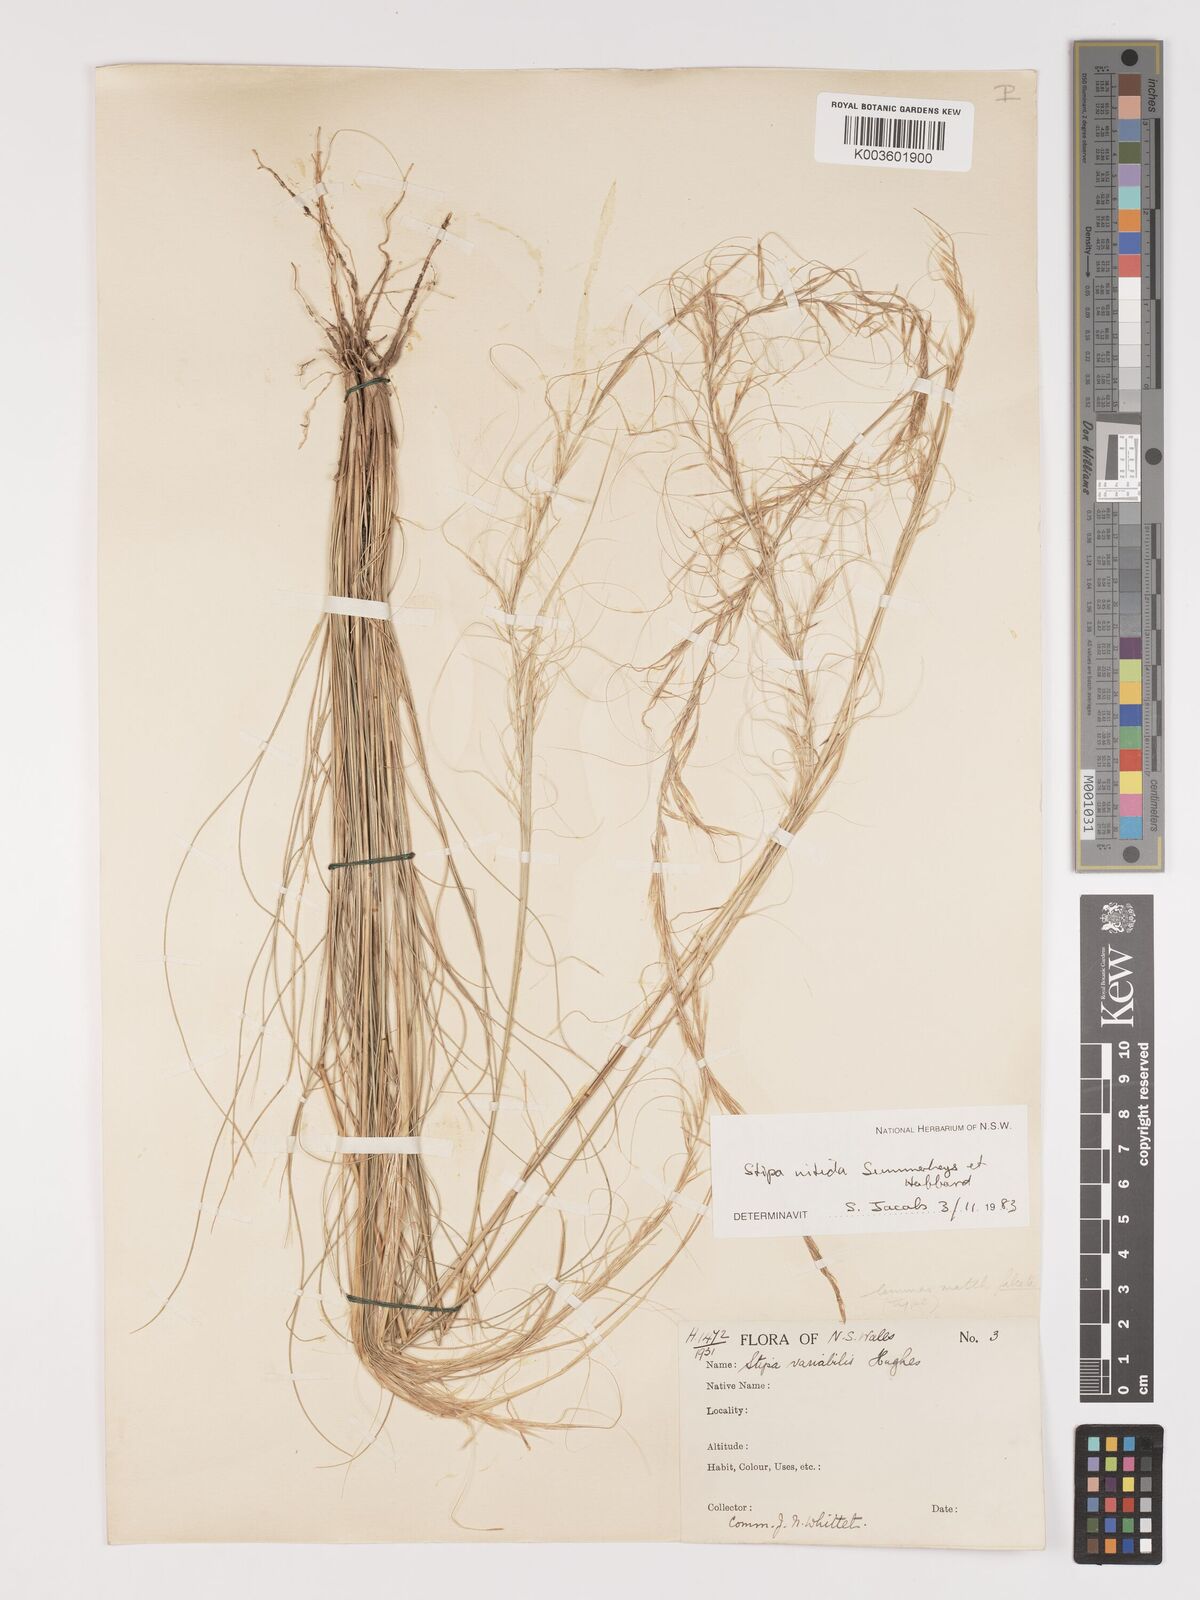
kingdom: Plantae
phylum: Tracheophyta
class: Liliopsida
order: Poales
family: Poaceae
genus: Austrostipa
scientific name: Austrostipa nitida
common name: Balcarra grass
